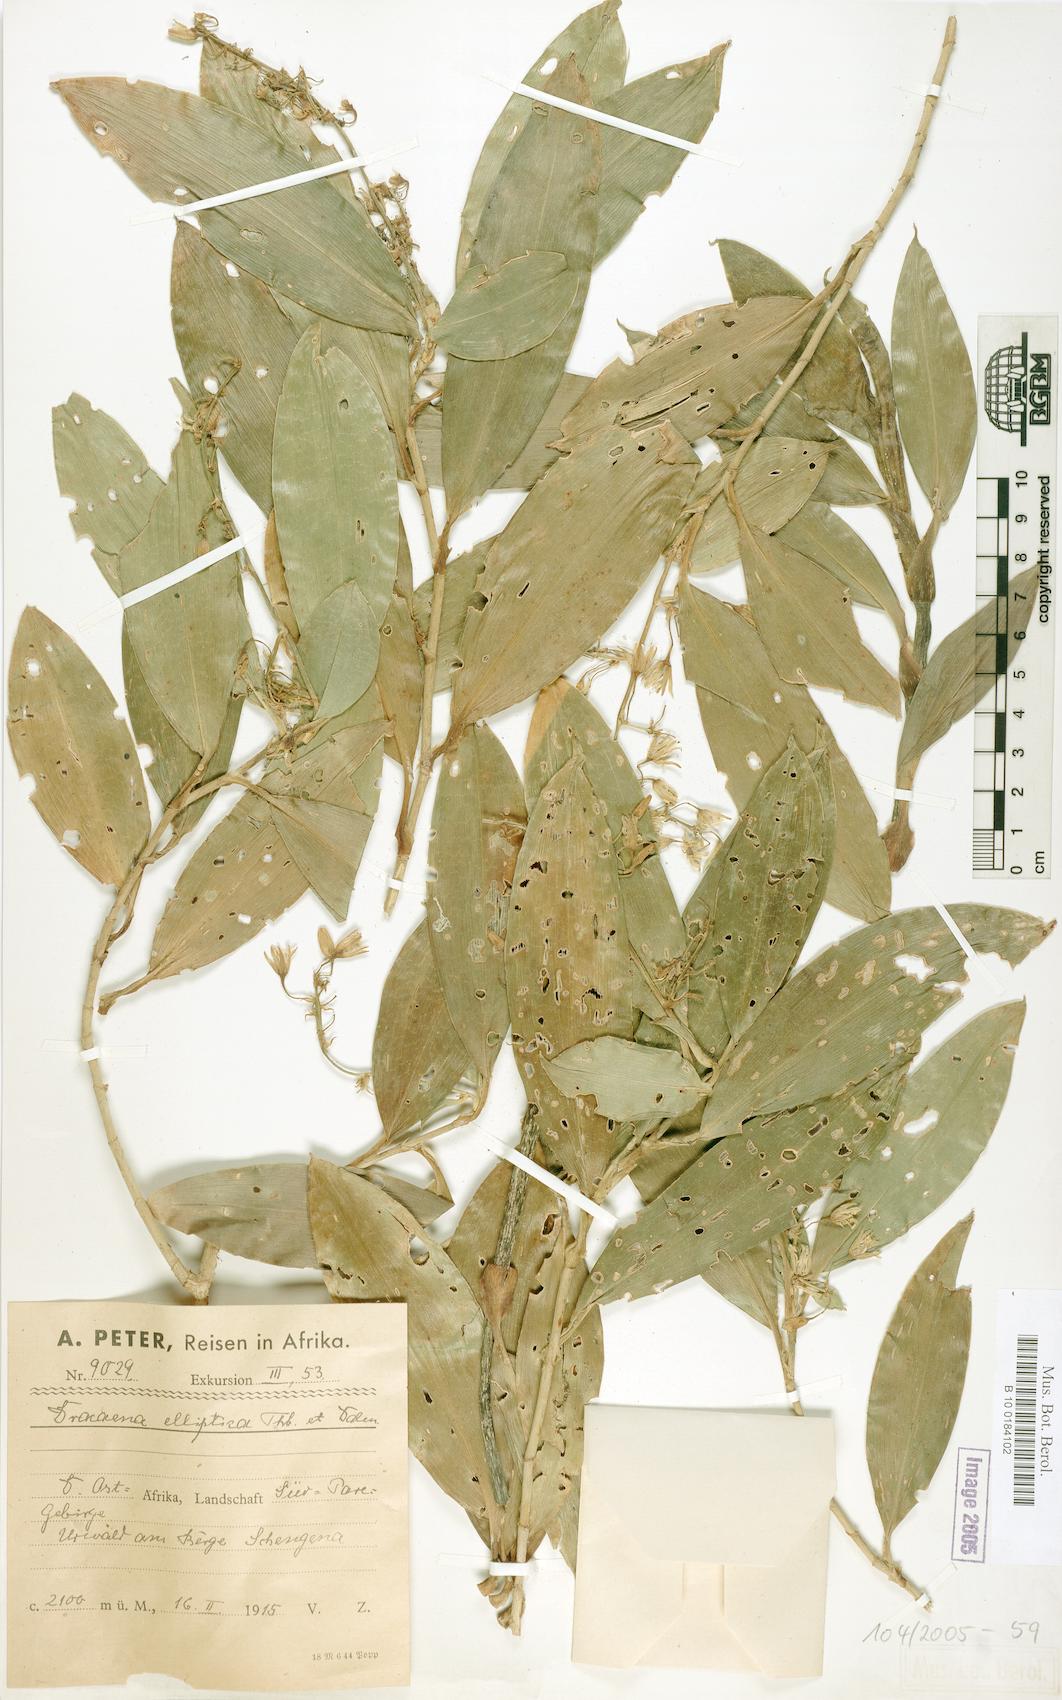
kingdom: Plantae
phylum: Tracheophyta
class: Liliopsida
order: Asparagales
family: Asparagaceae
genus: Dracaena
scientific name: Dracaena elliptica
